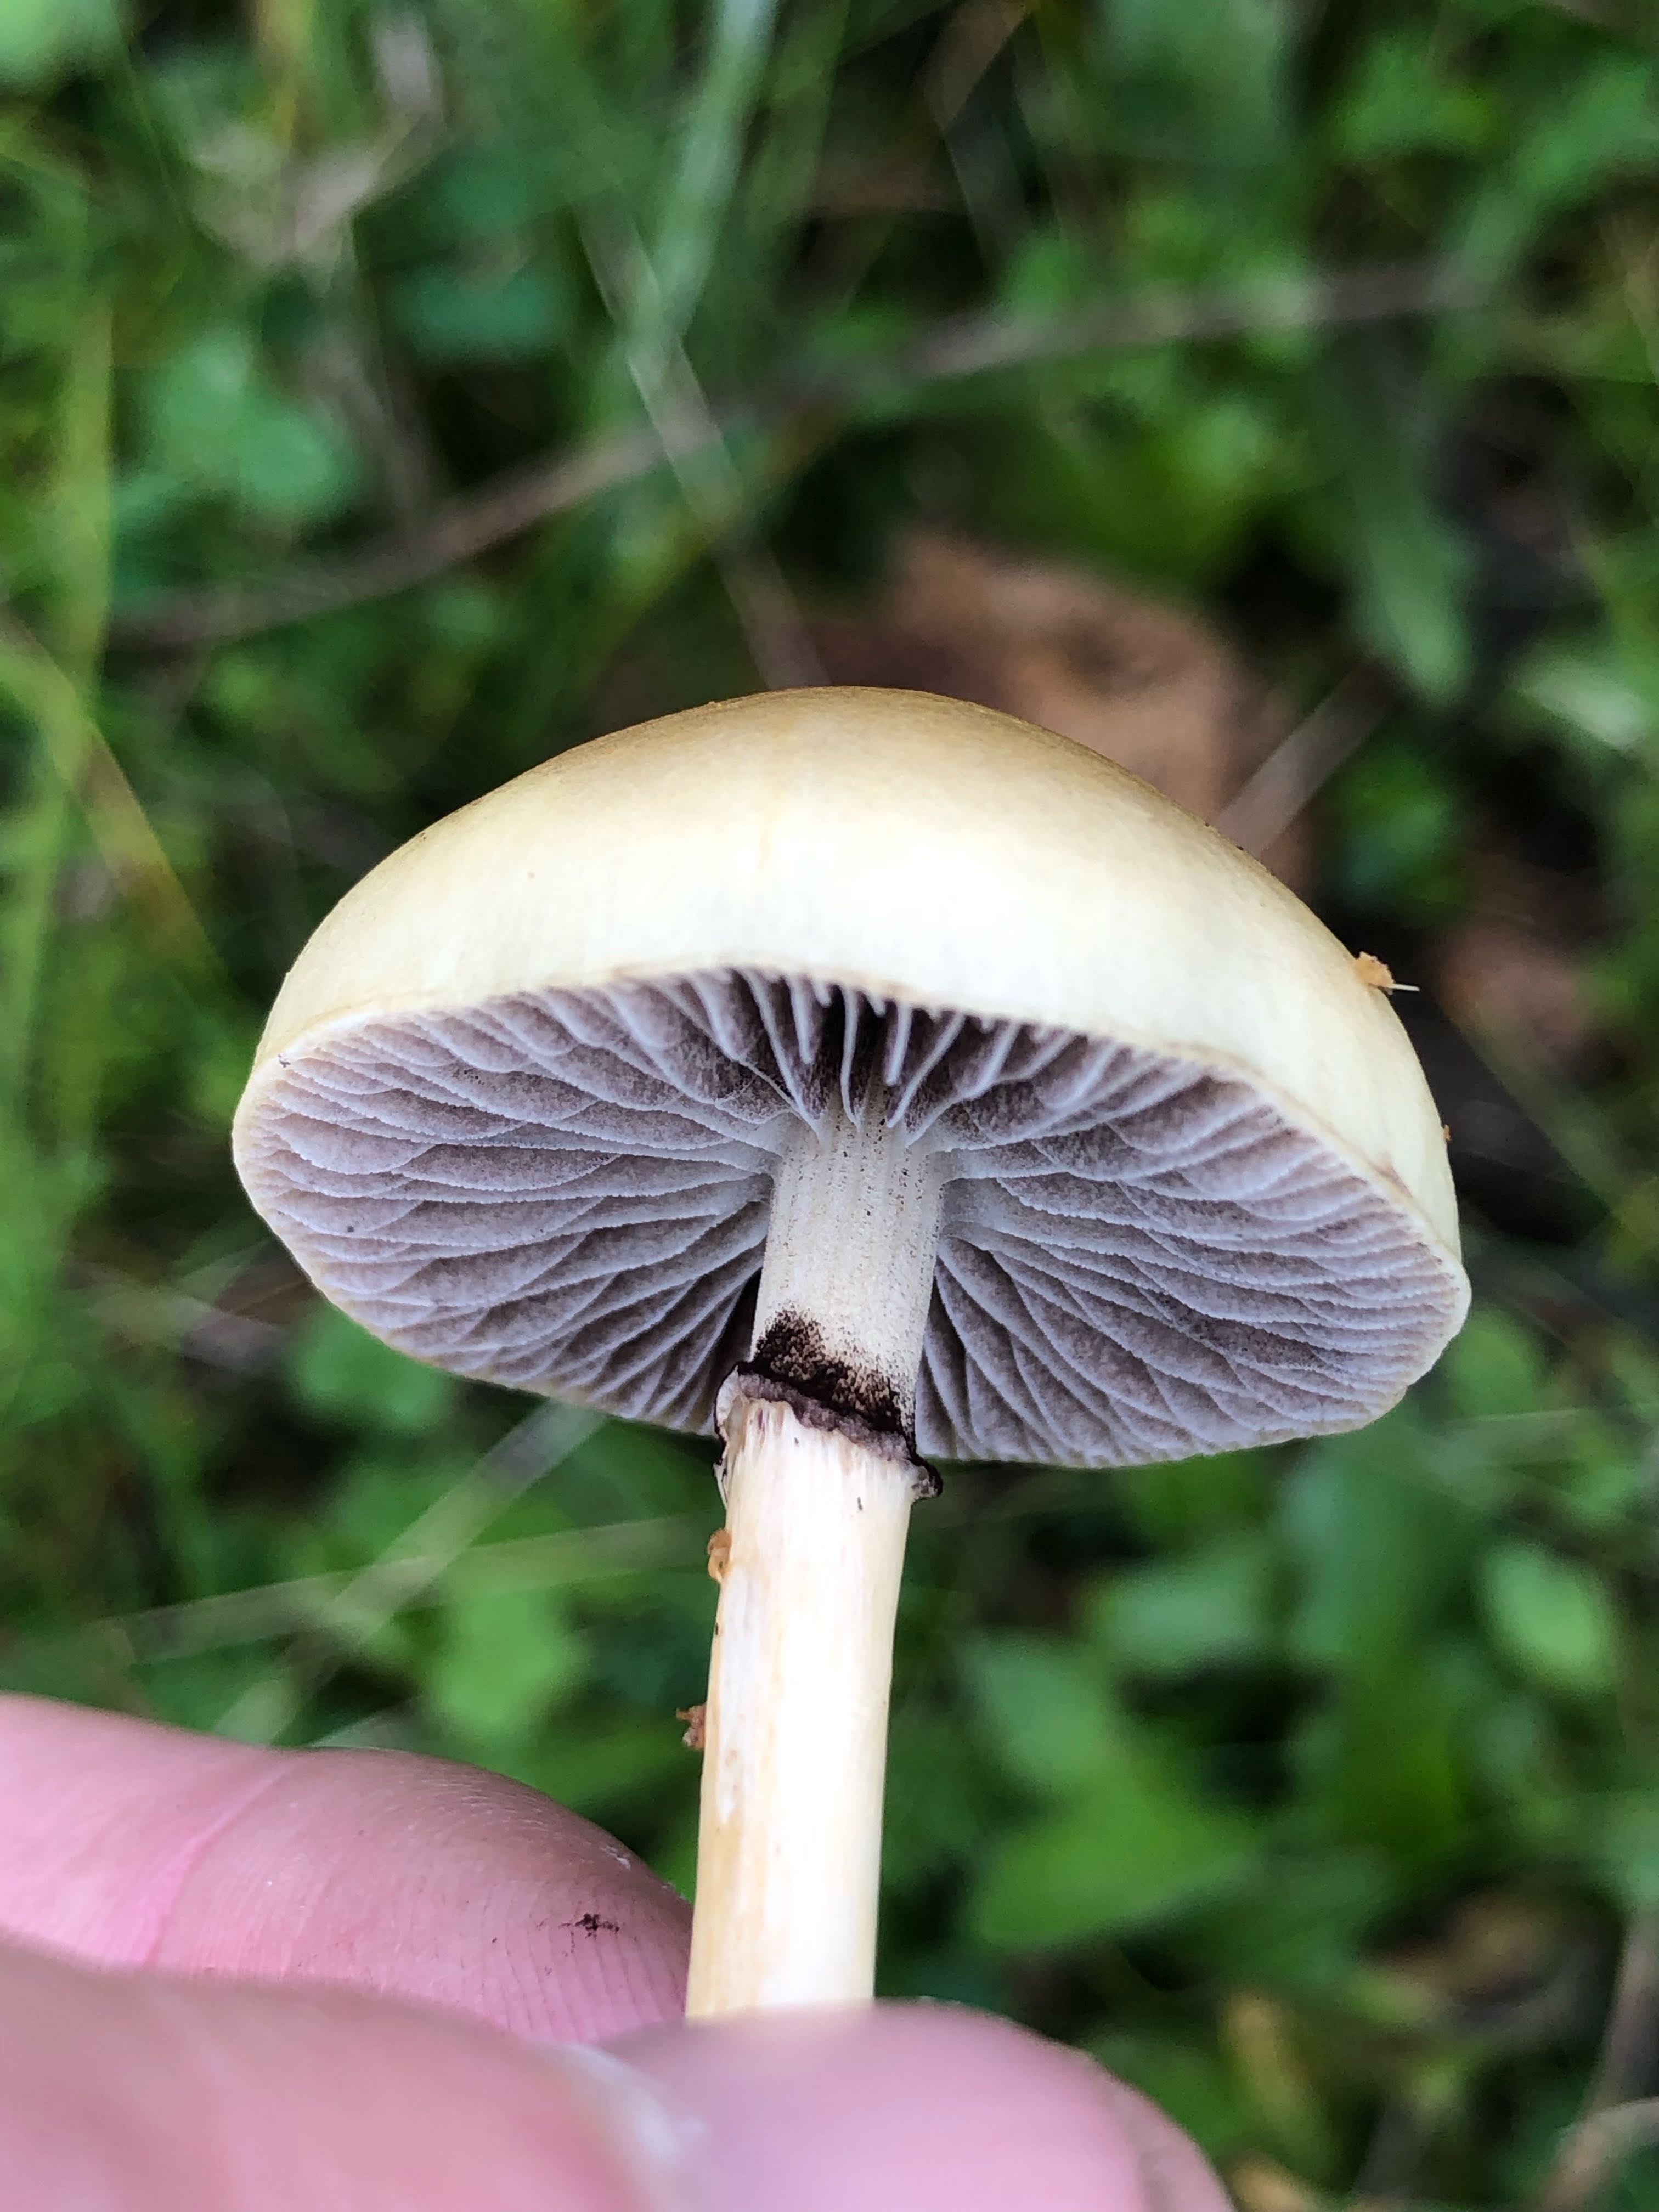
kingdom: Fungi
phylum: Basidiomycota
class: Agaricomycetes
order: Agaricales
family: Strophariaceae
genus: Protostropharia
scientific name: Protostropharia semiglobata
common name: halvkugleformet bredblad
